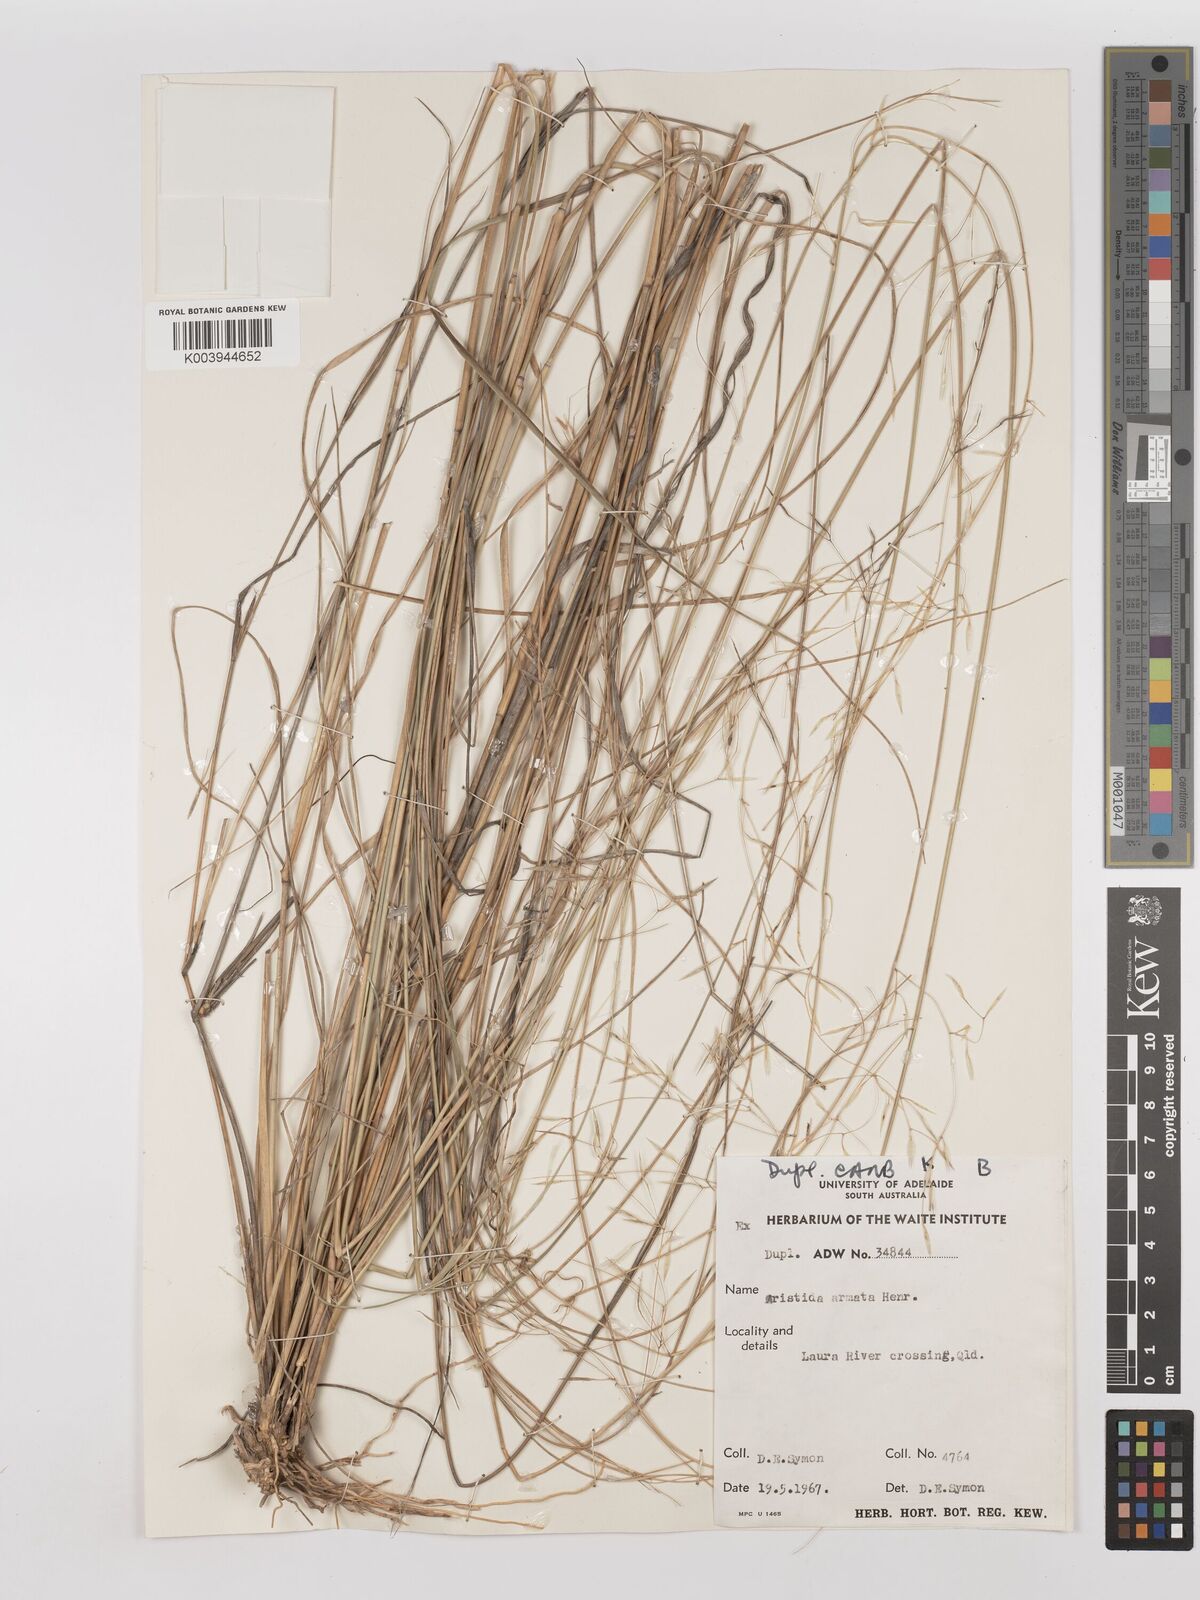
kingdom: Plantae
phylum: Tracheophyta
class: Liliopsida
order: Poales
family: Poaceae
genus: Aristida
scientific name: Aristida calycina
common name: Dark wire grass
